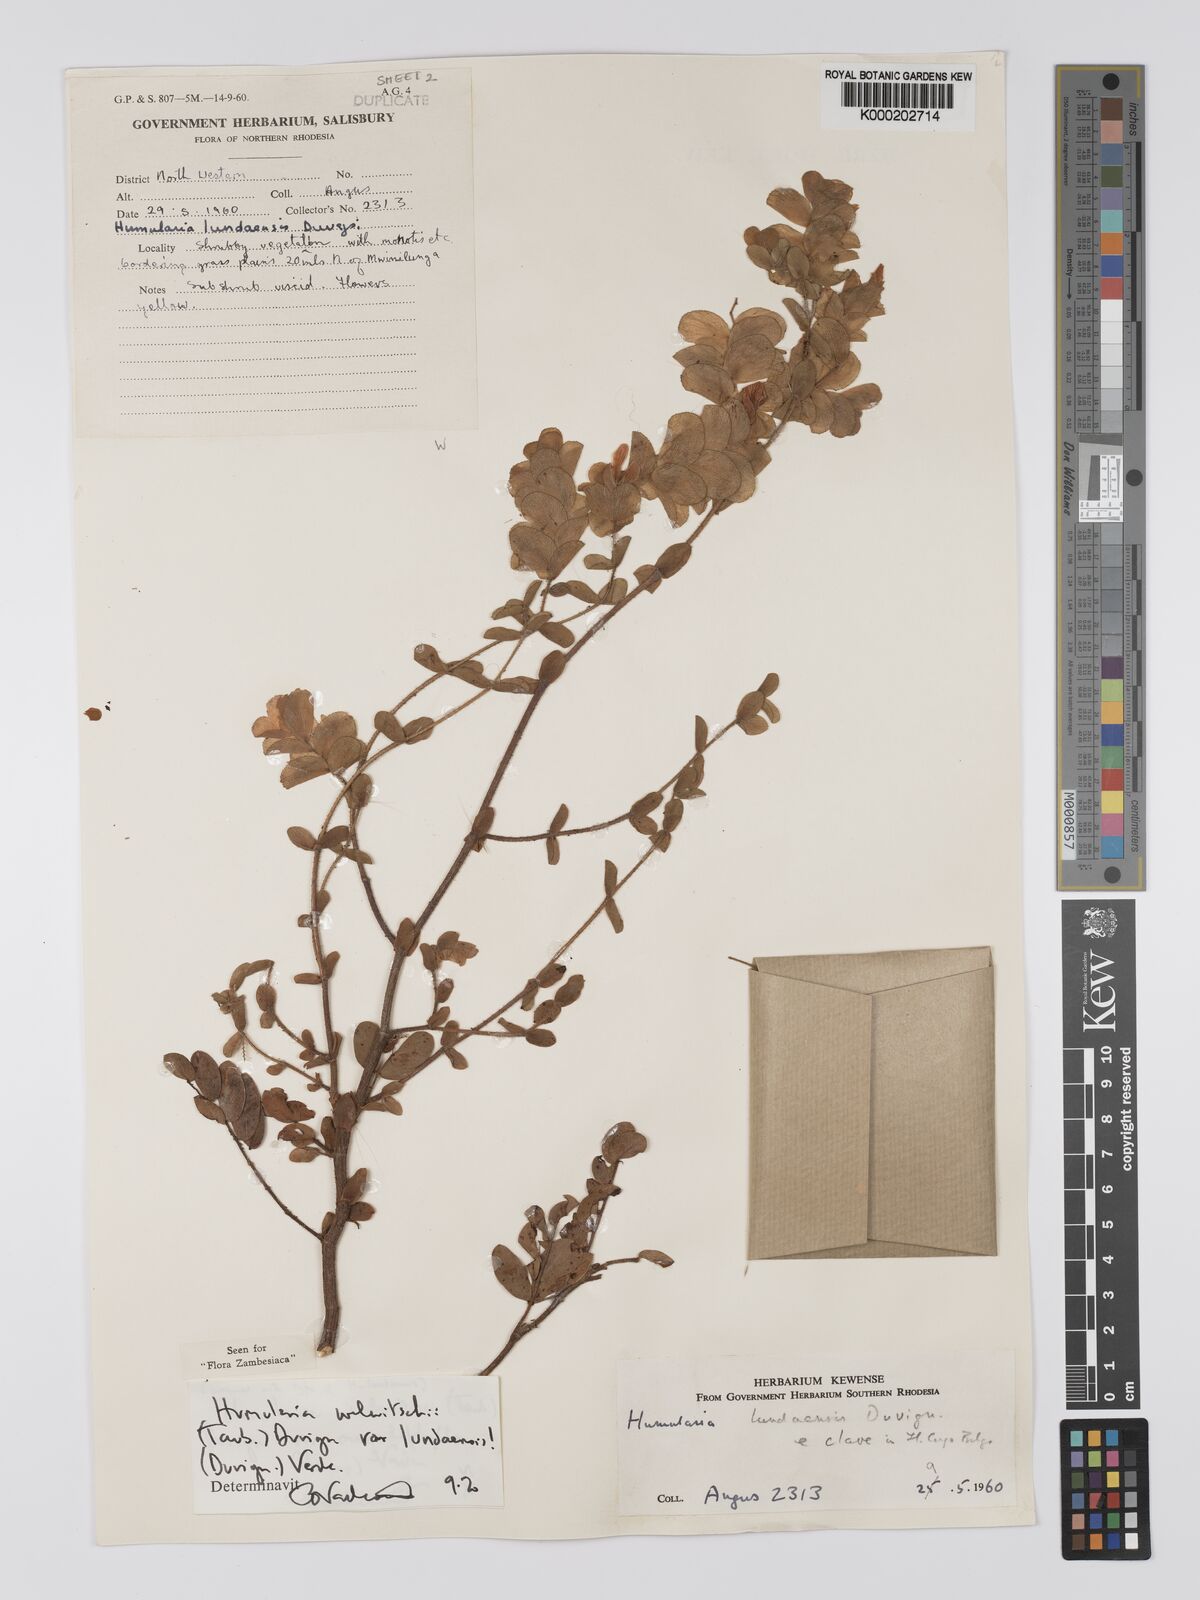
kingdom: Plantae
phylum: Tracheophyta
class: Magnoliopsida
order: Fabales
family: Fabaceae
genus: Humularia
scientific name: Humularia welwitschii
